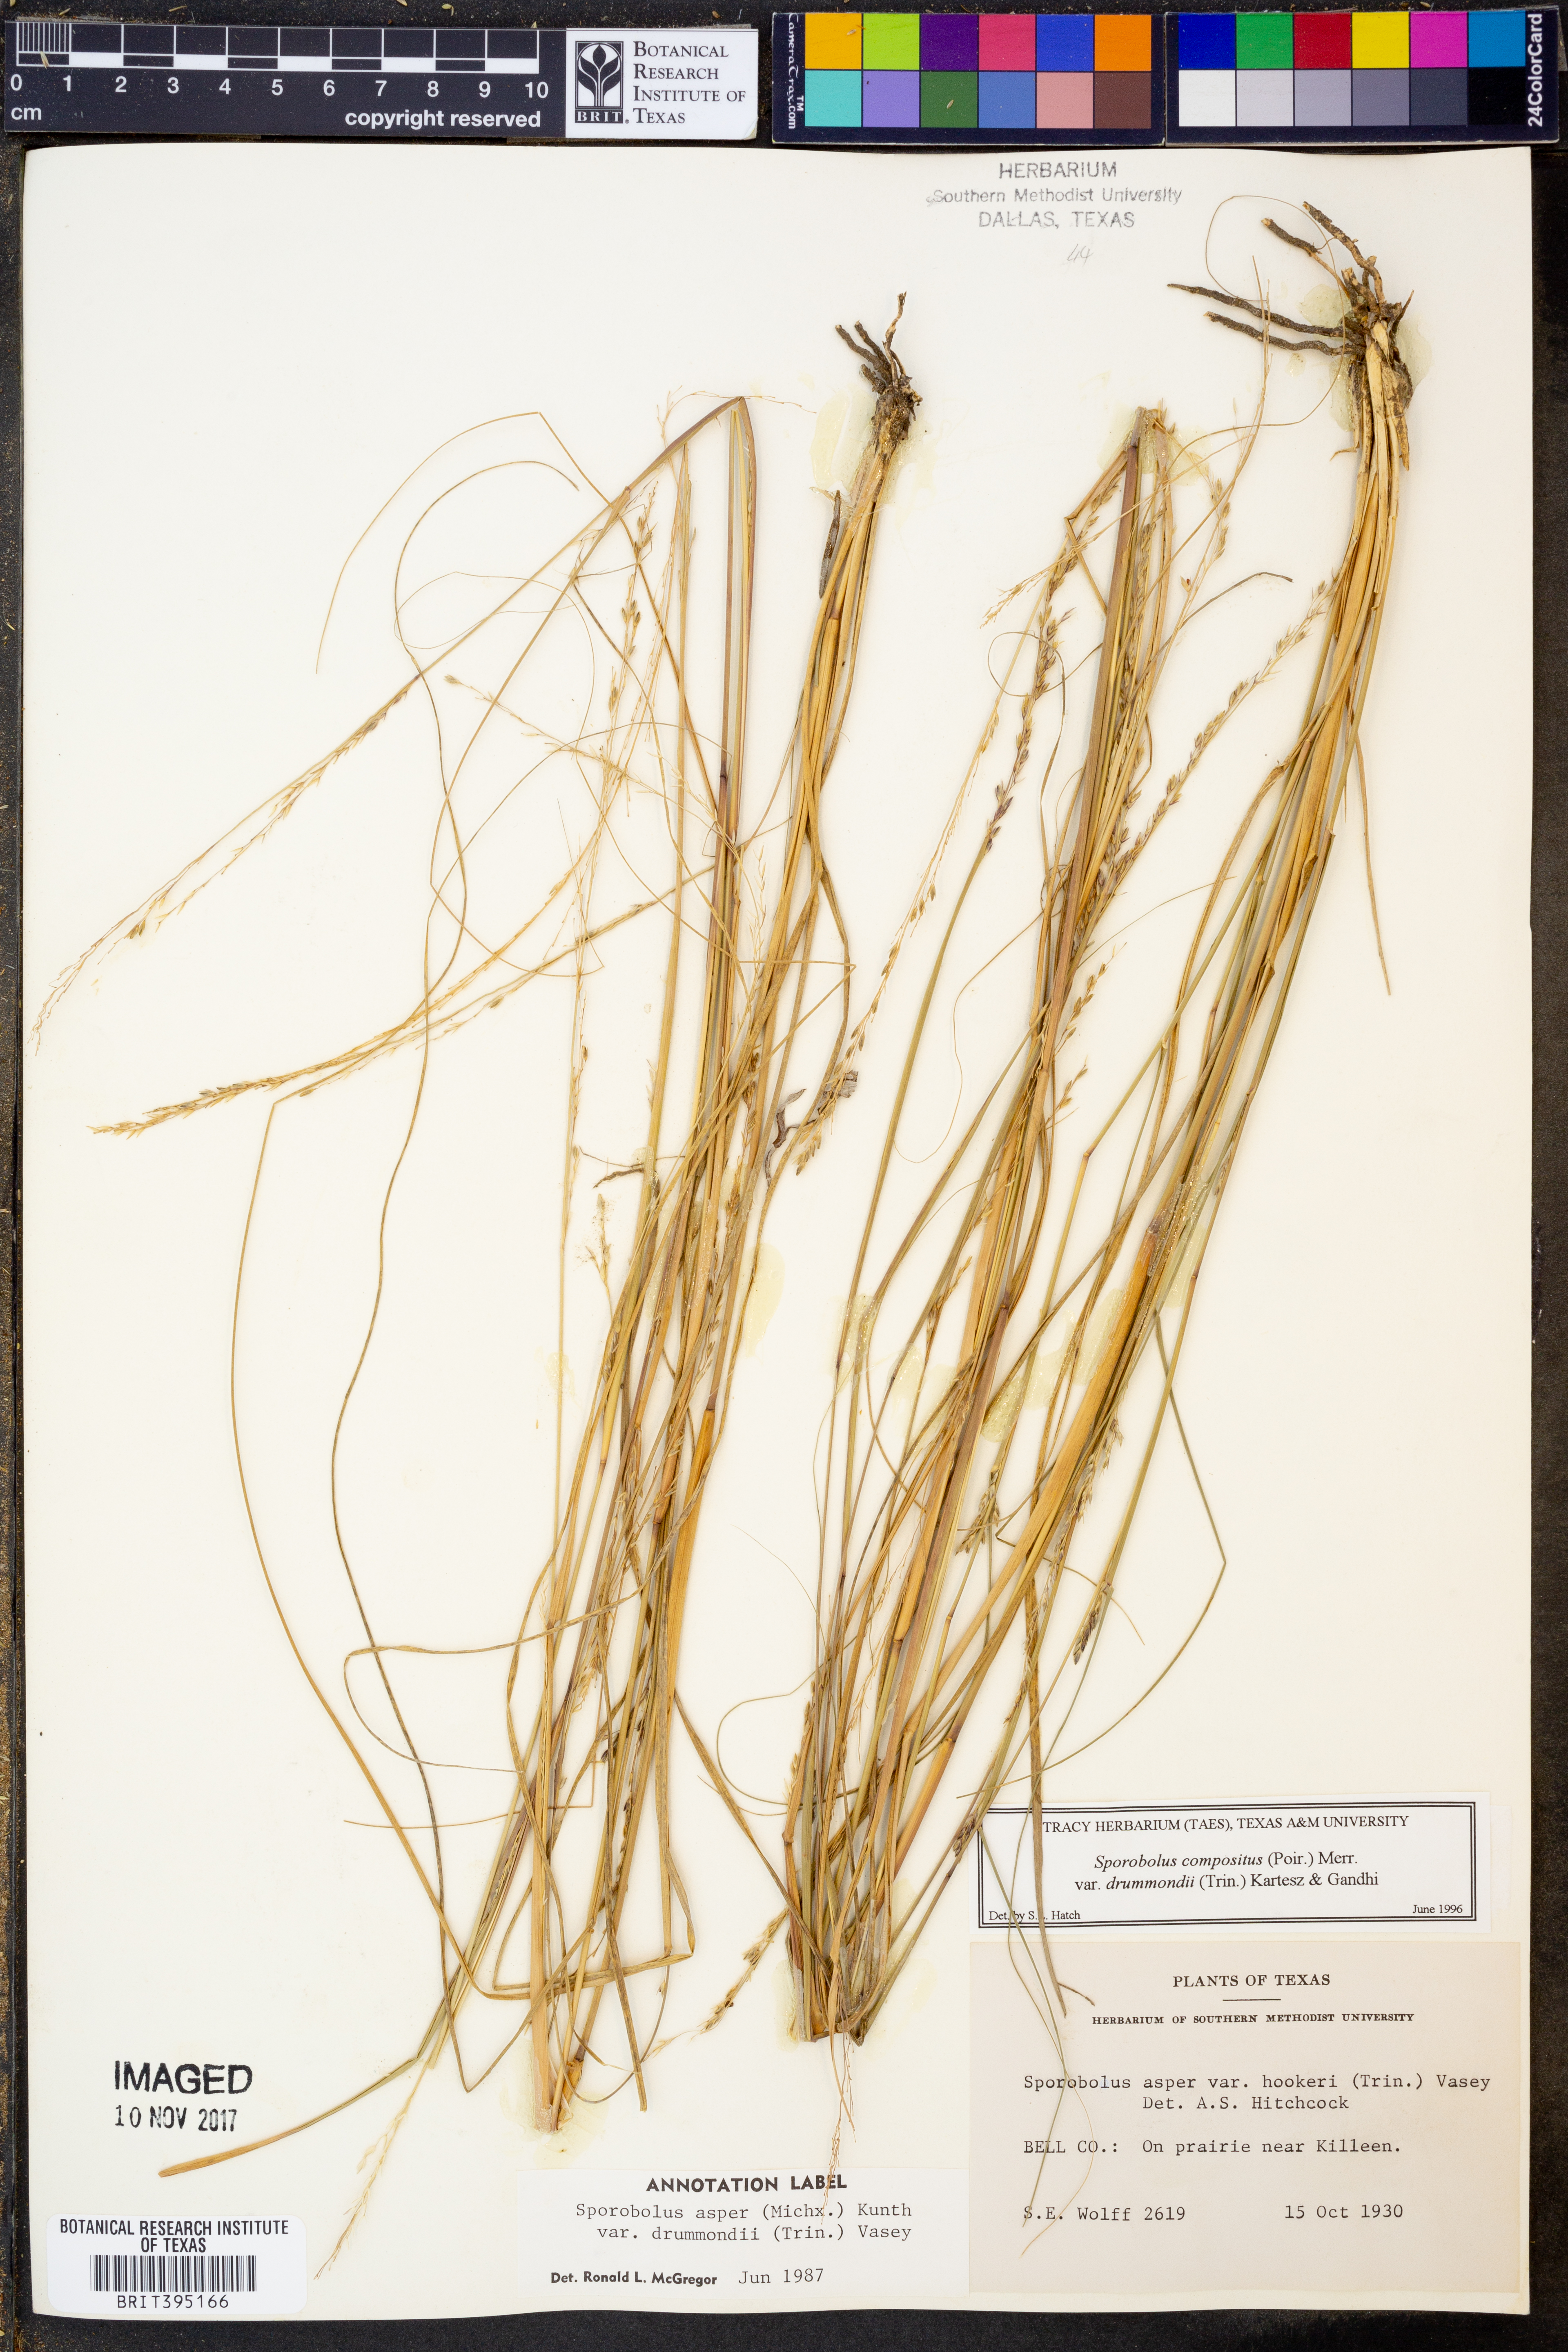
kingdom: Plantae
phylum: Tracheophyta
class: Liliopsida
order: Poales
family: Poaceae
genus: Sporobolus
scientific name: Sporobolus compositus
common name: Rough dropseed
